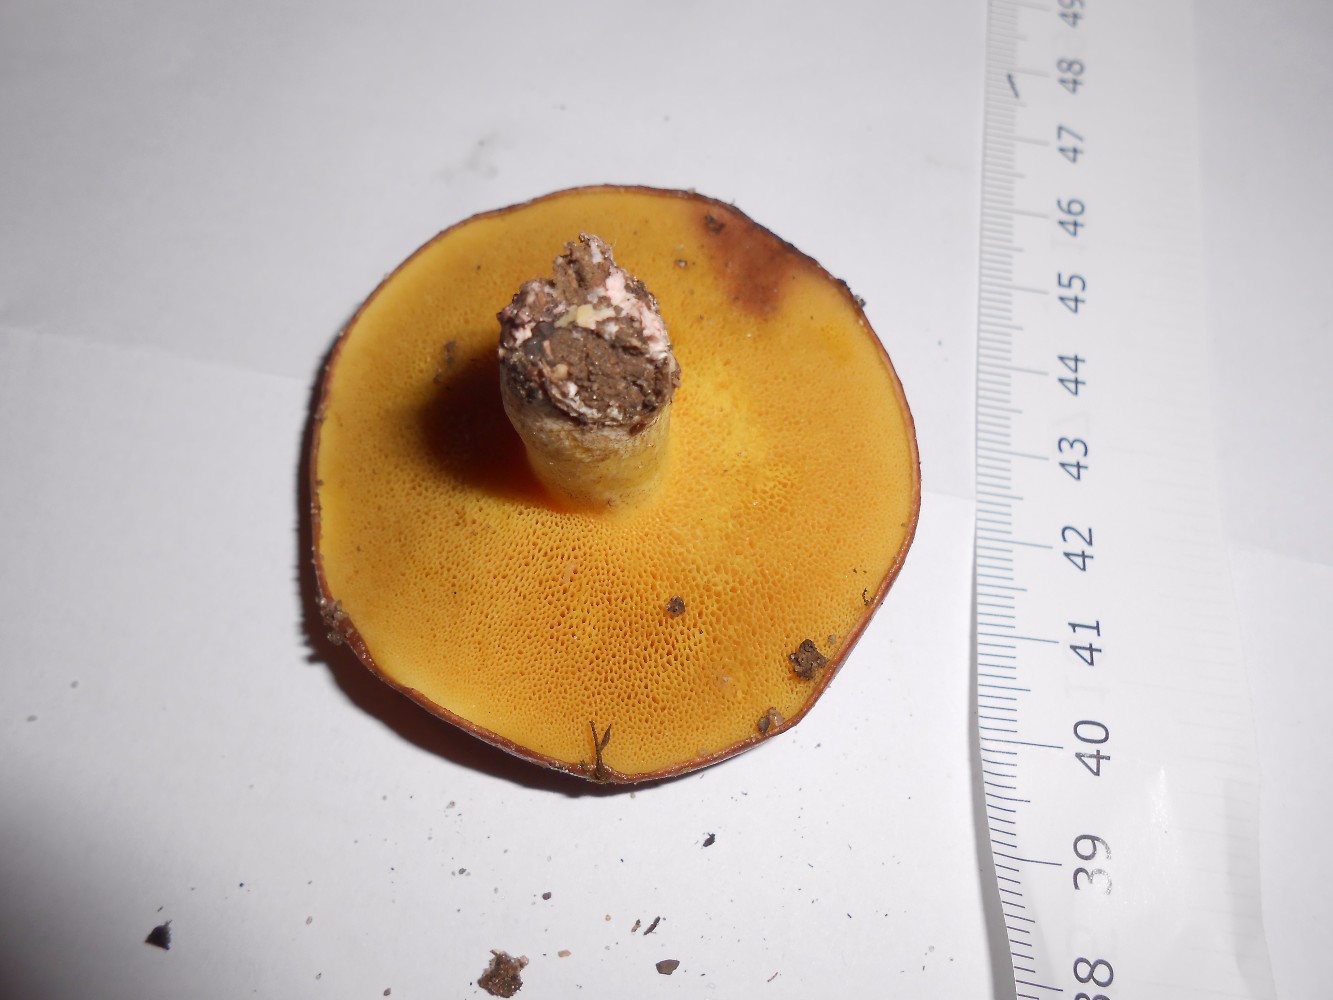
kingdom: Fungi
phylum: Basidiomycota
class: Agaricomycetes
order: Boletales
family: Suillaceae
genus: Suillus
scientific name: Suillus granulatus
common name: kornet slimrørhat
